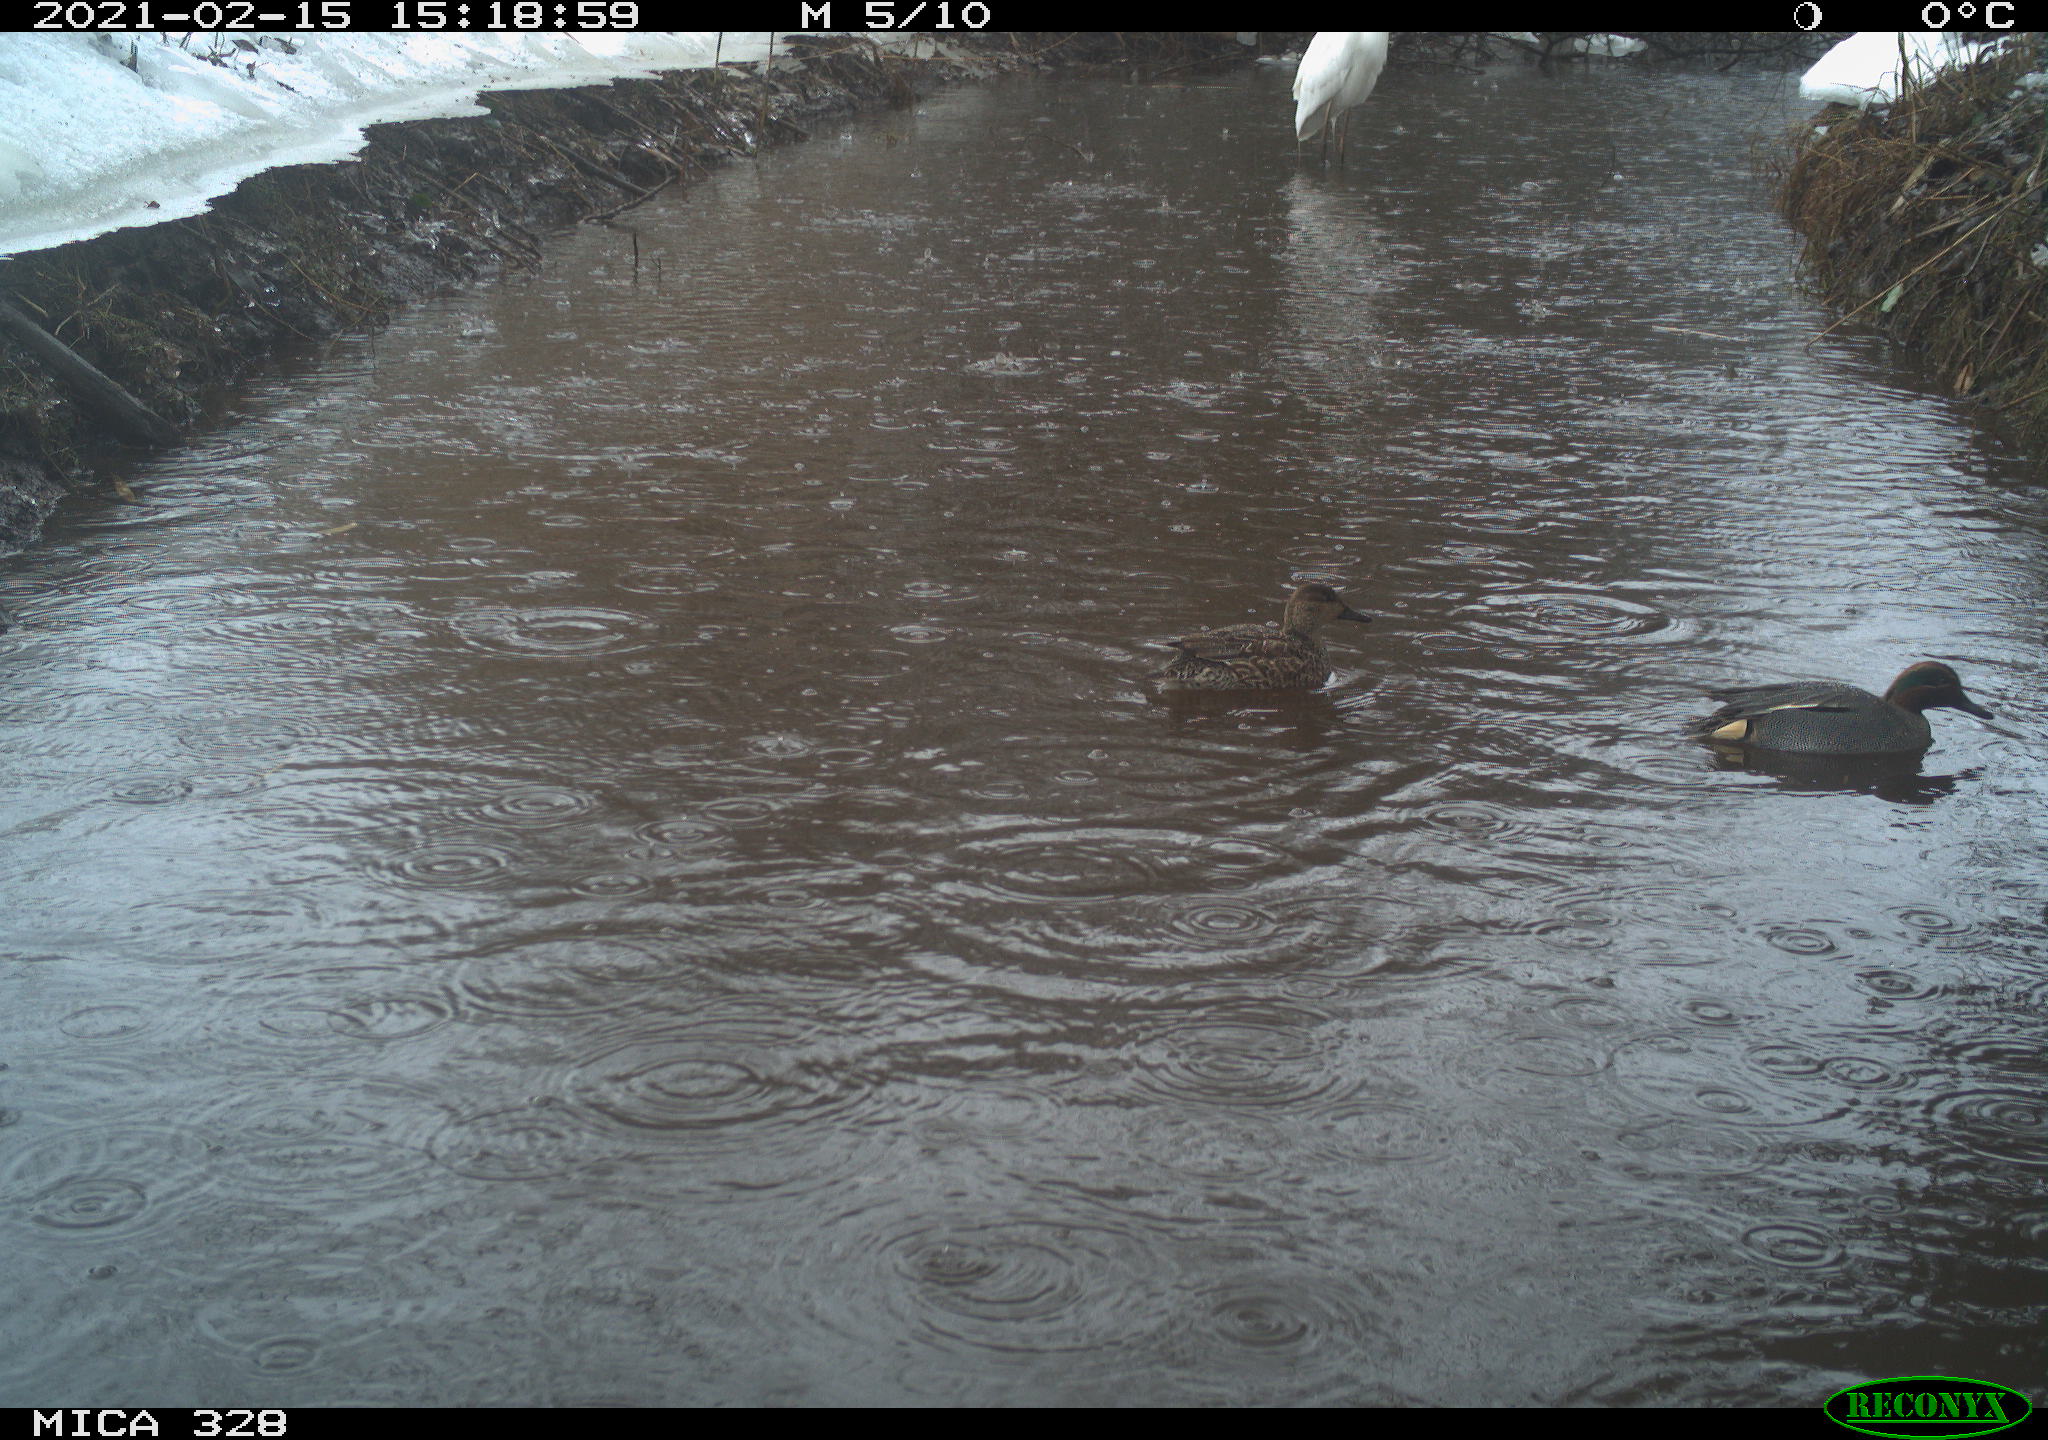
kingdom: Animalia
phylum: Chordata
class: Aves
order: Anseriformes
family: Anatidae
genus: Anas
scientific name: Anas
